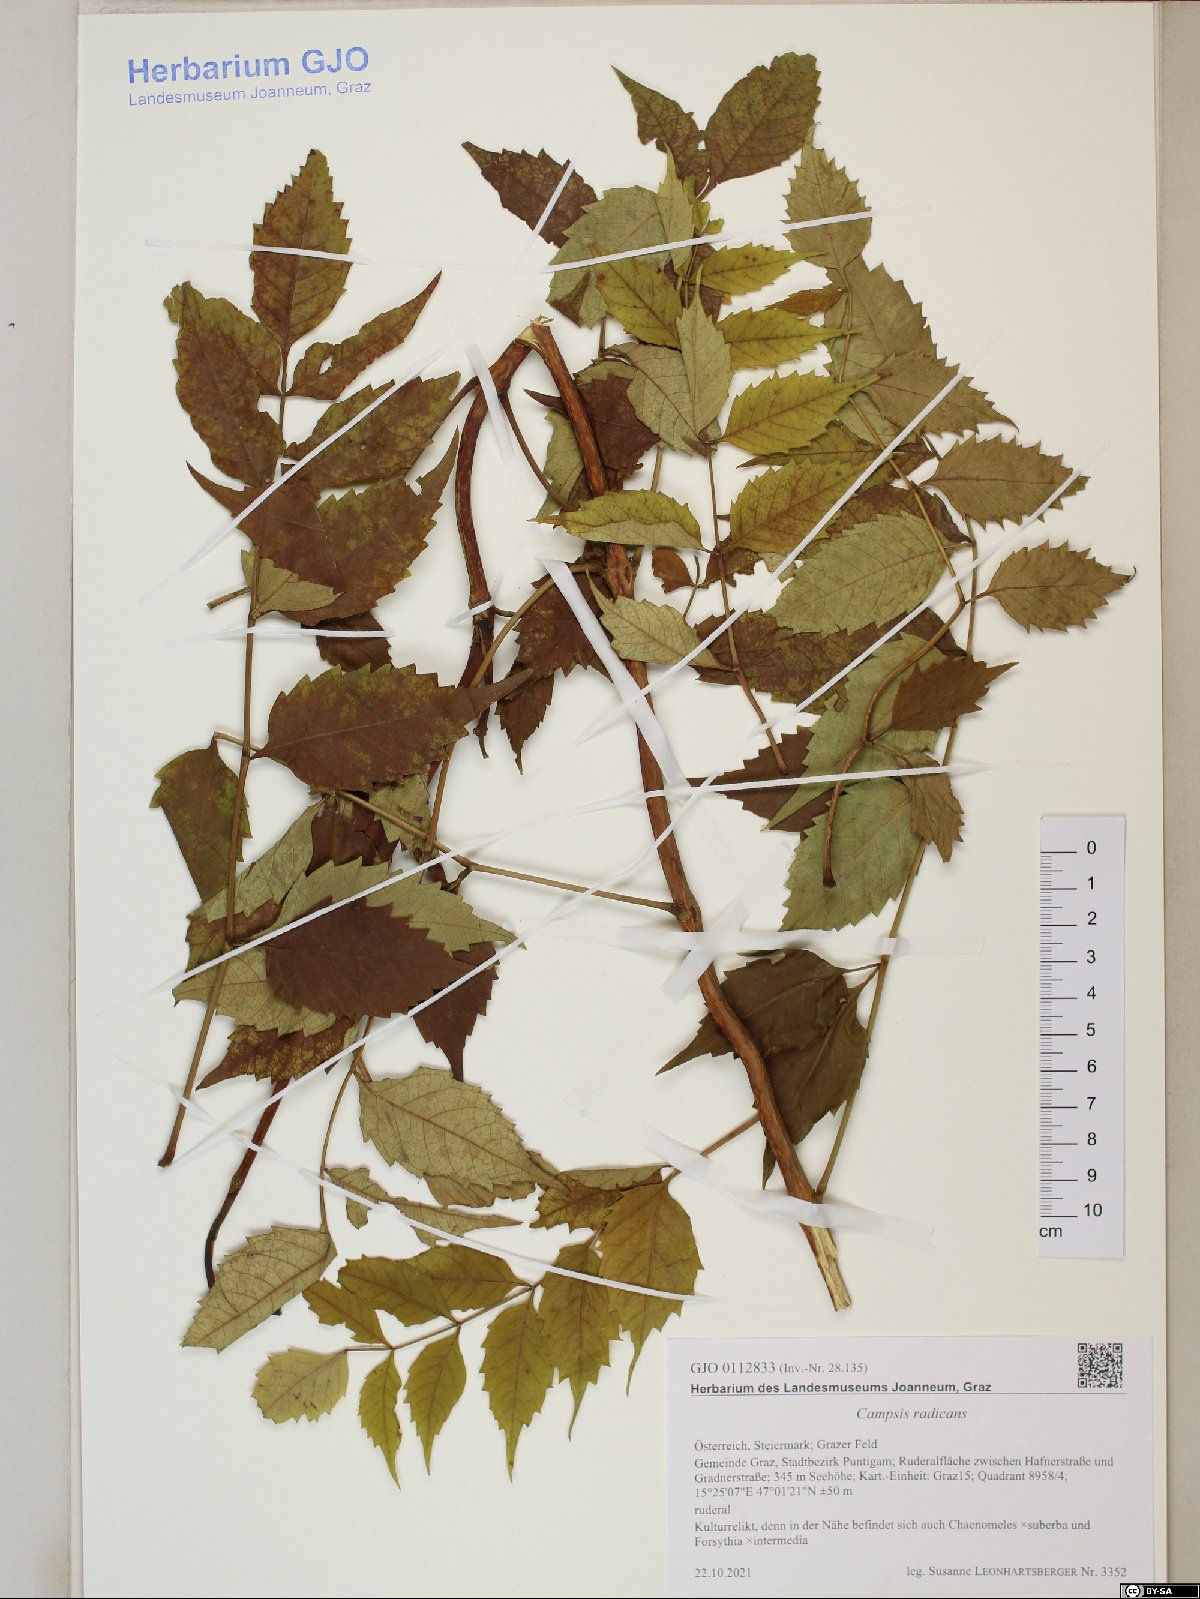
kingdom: Plantae
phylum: Tracheophyta
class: Magnoliopsida
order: Lamiales
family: Bignoniaceae
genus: Campsis
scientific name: Campsis radicans
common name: Trumpet-creeper
